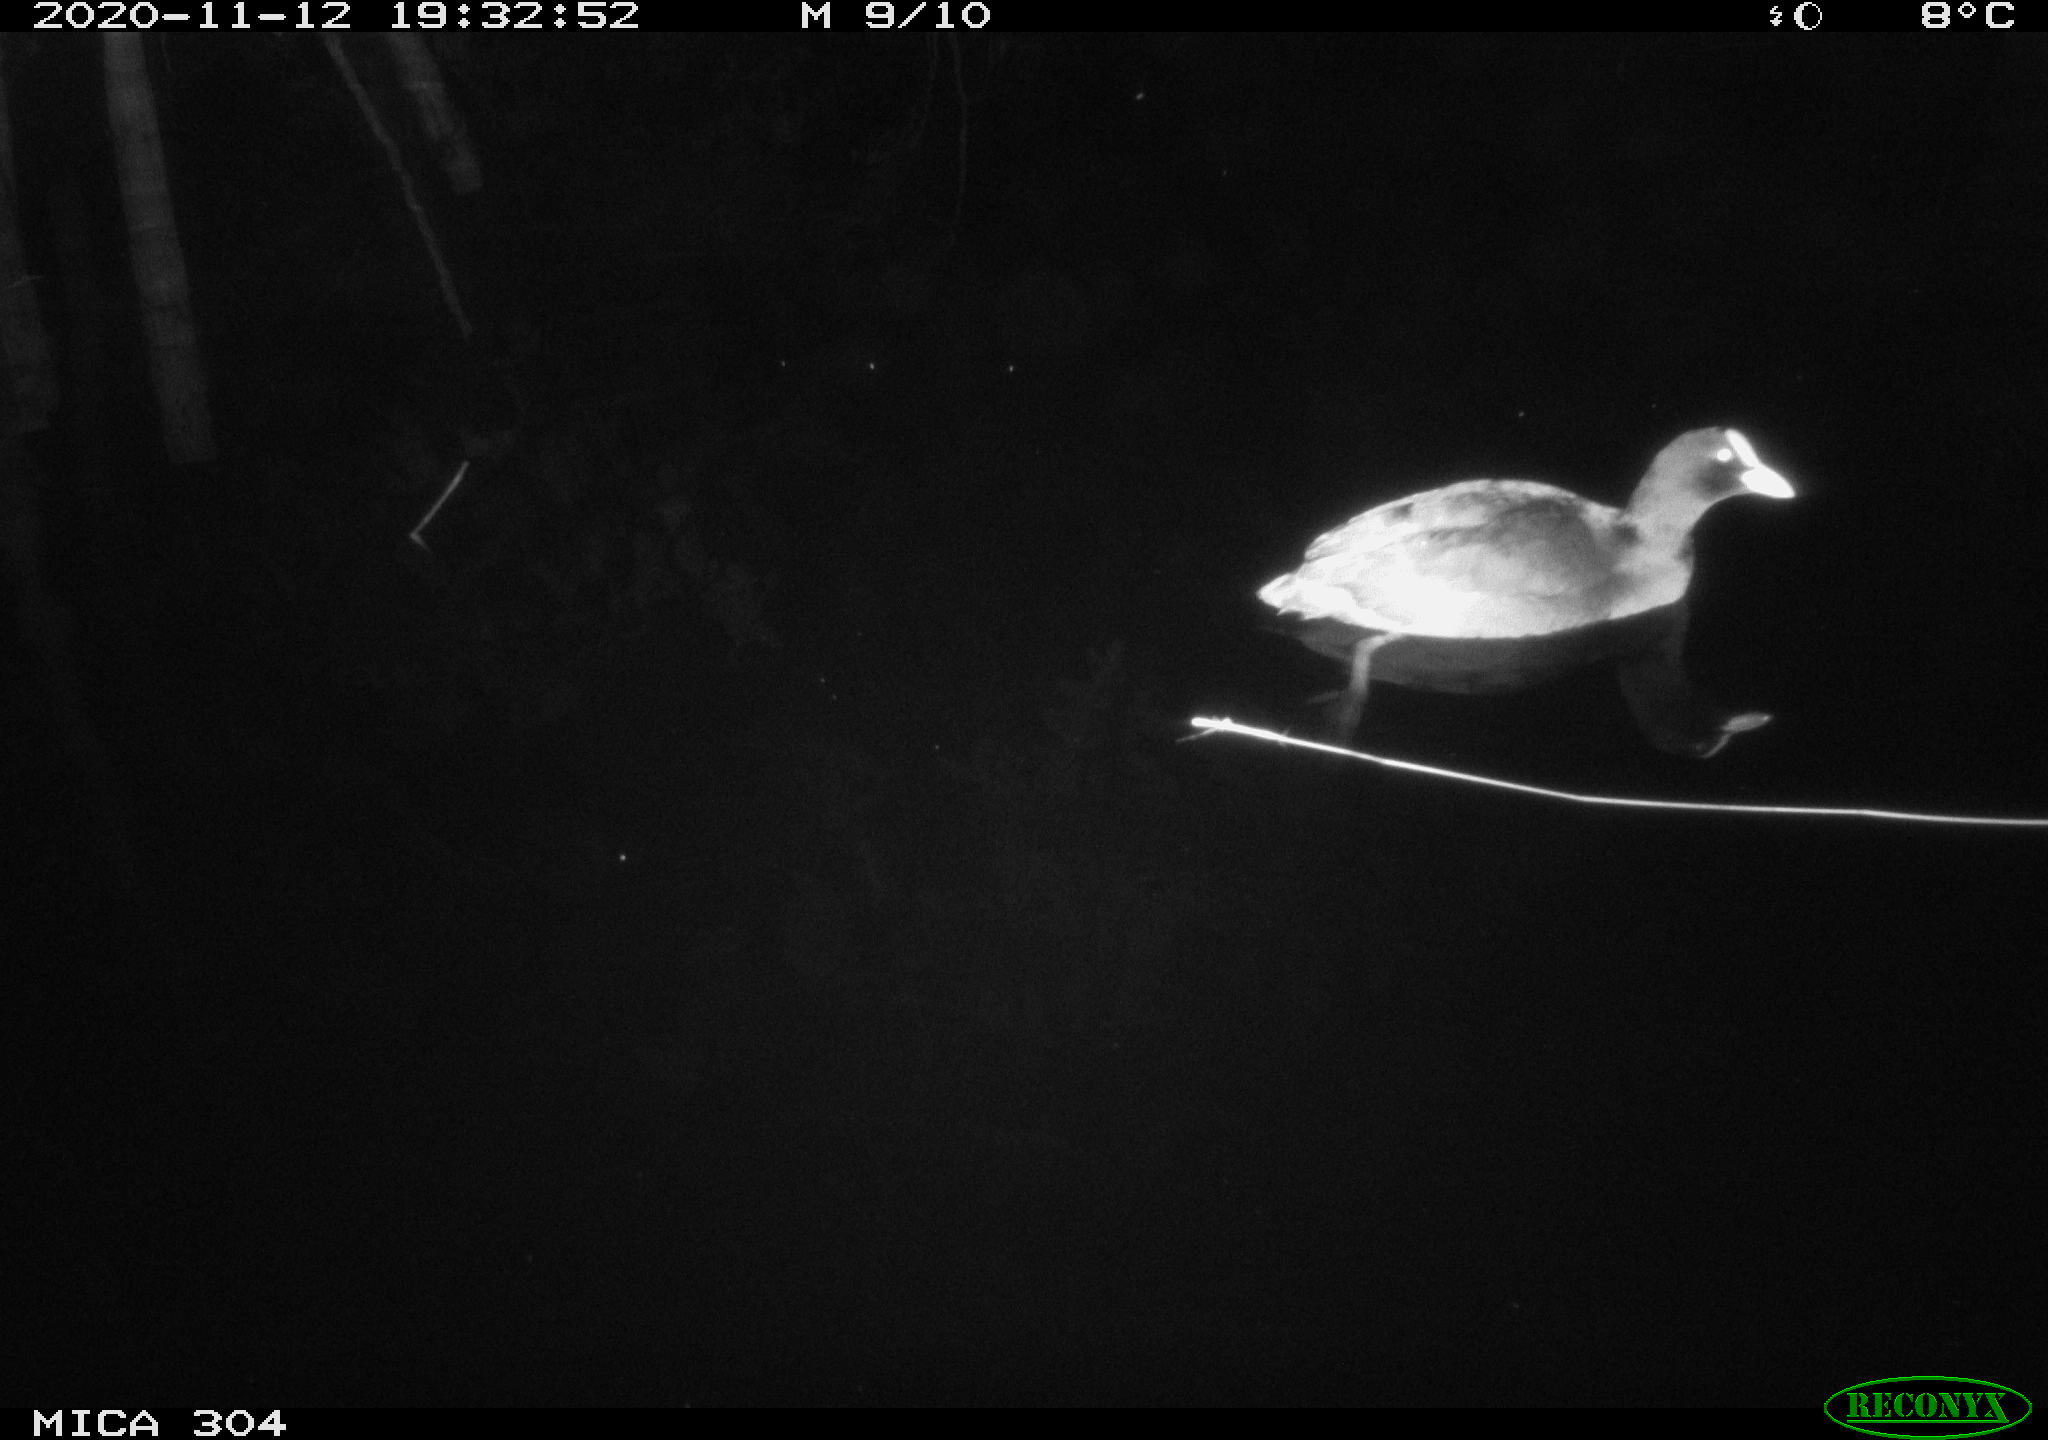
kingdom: Animalia
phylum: Chordata
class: Aves
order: Gruiformes
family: Rallidae
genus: Fulica
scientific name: Fulica atra
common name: Eurasian coot
